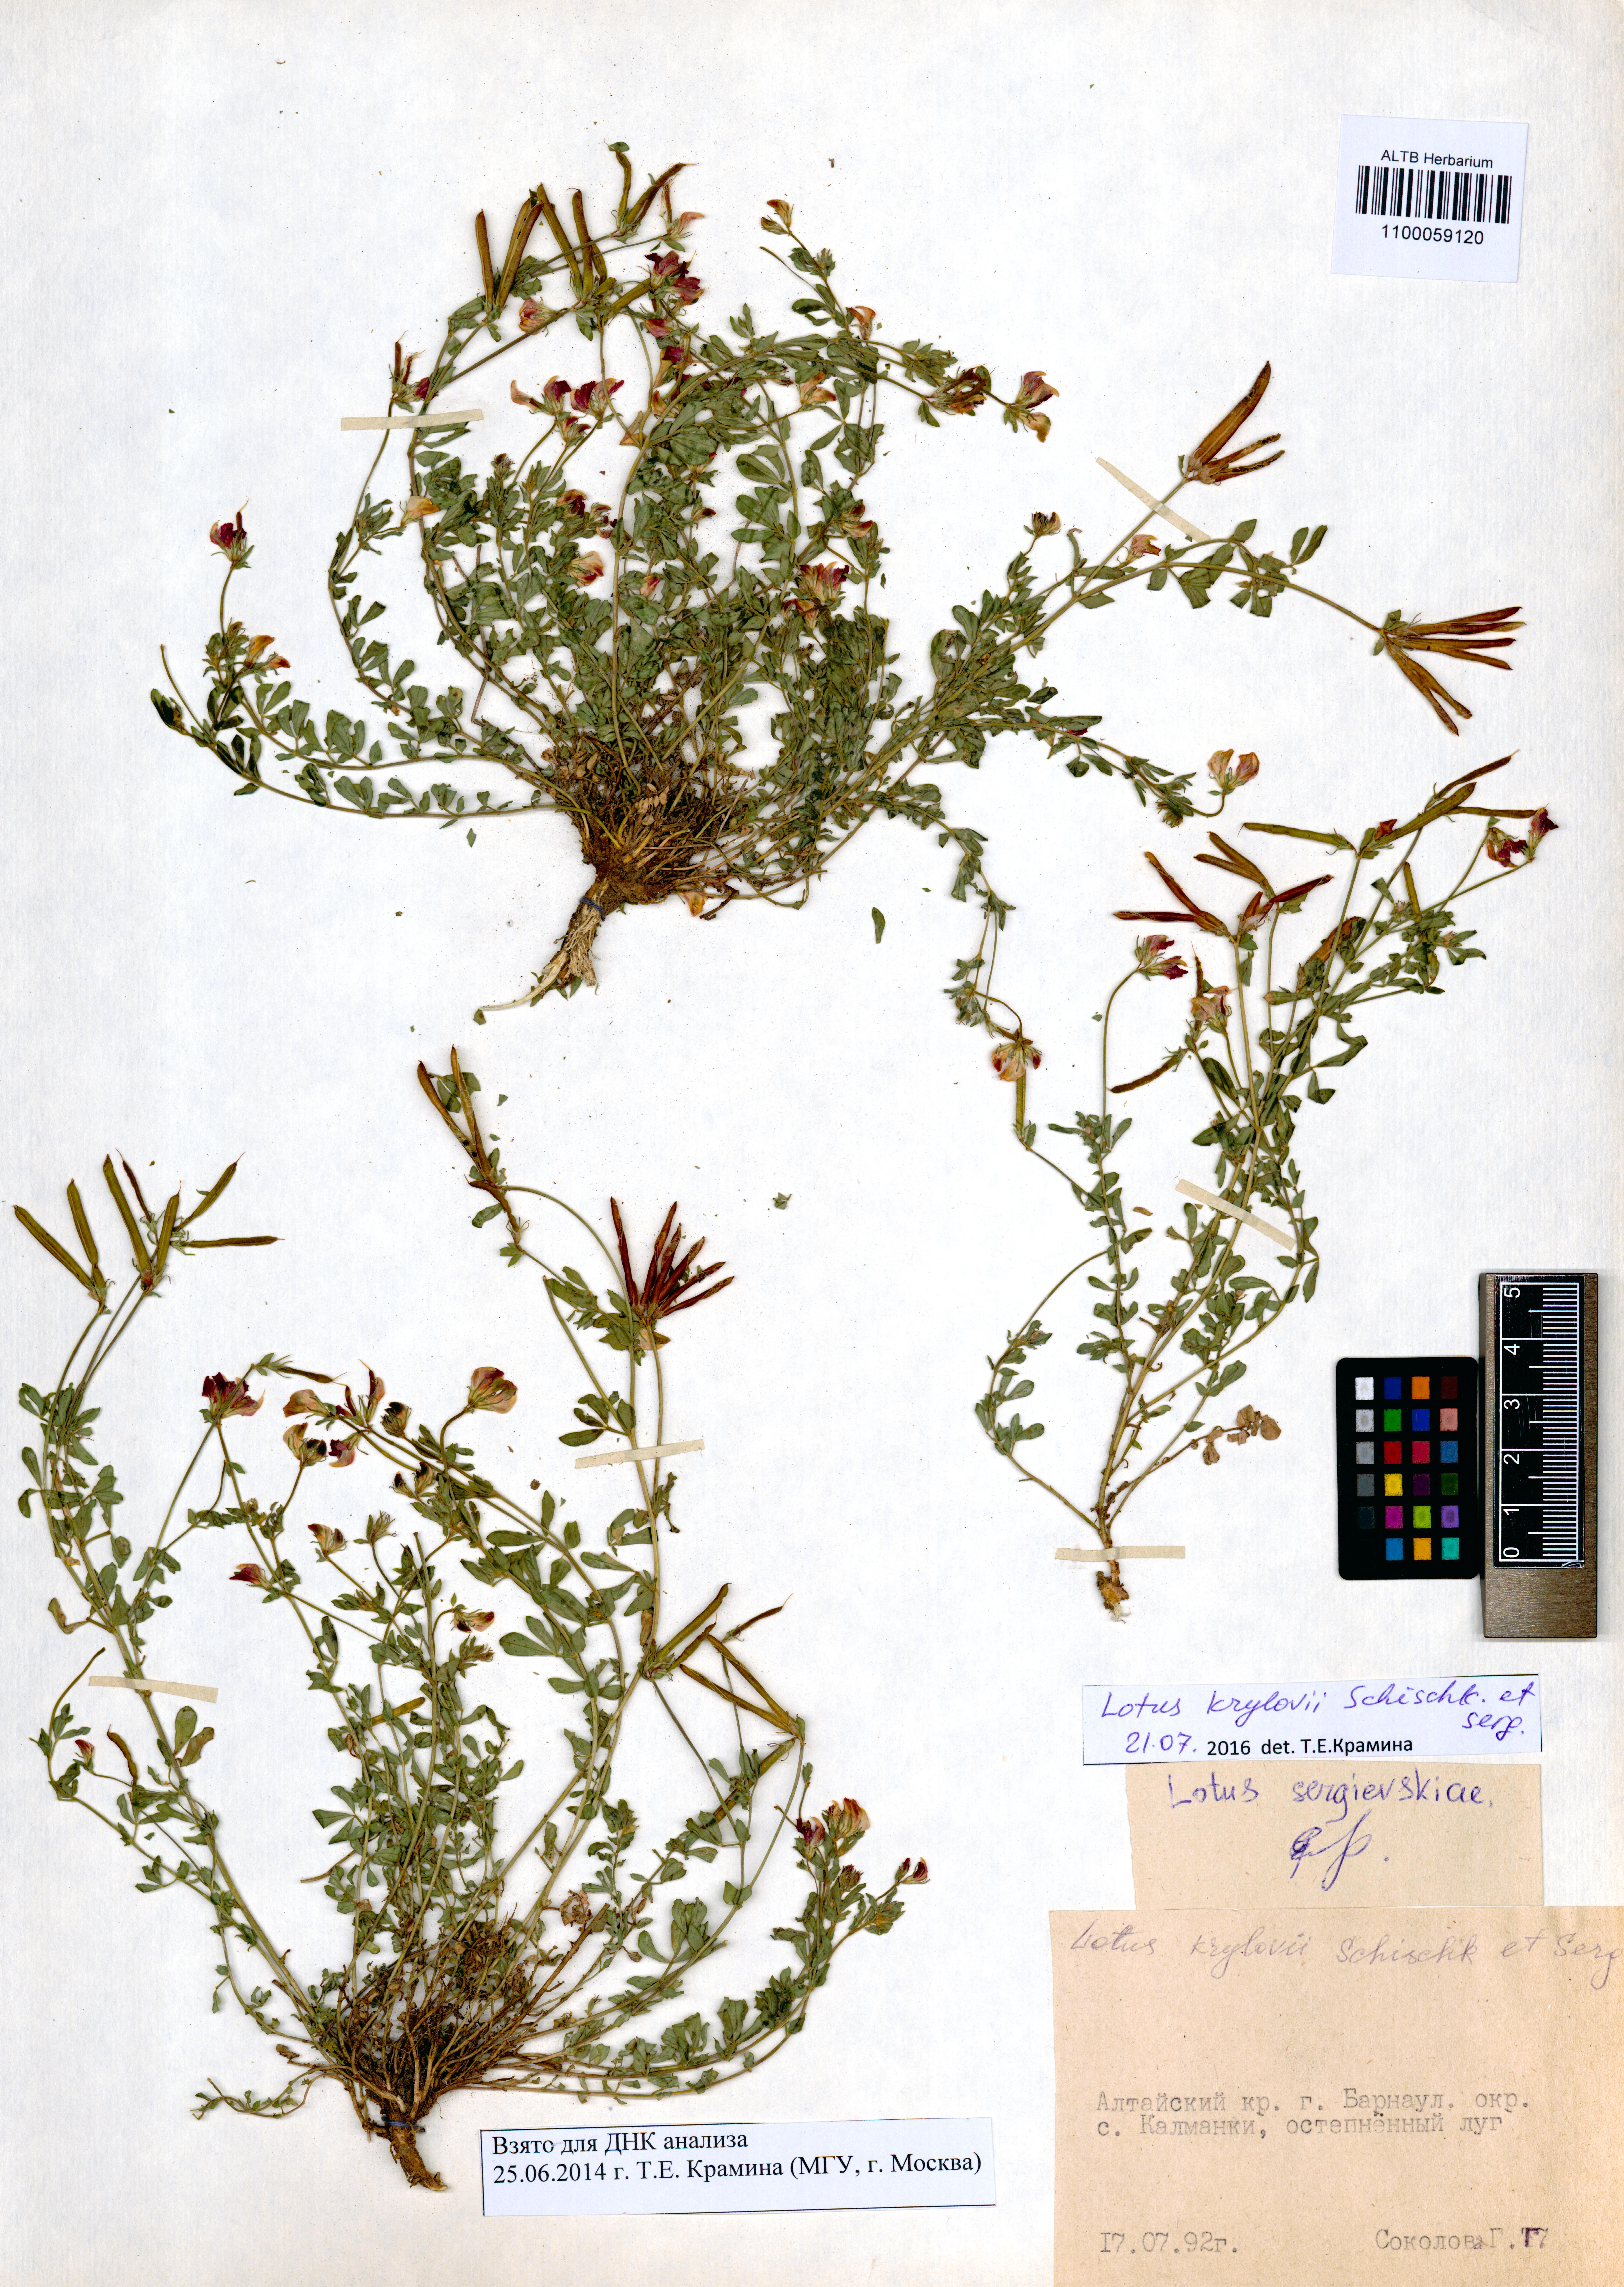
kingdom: Plantae
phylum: Tracheophyta
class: Magnoliopsida
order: Fabales
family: Fabaceae
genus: Lotus
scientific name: Lotus krylovii
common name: Krylov's bird's-foot trefoil
